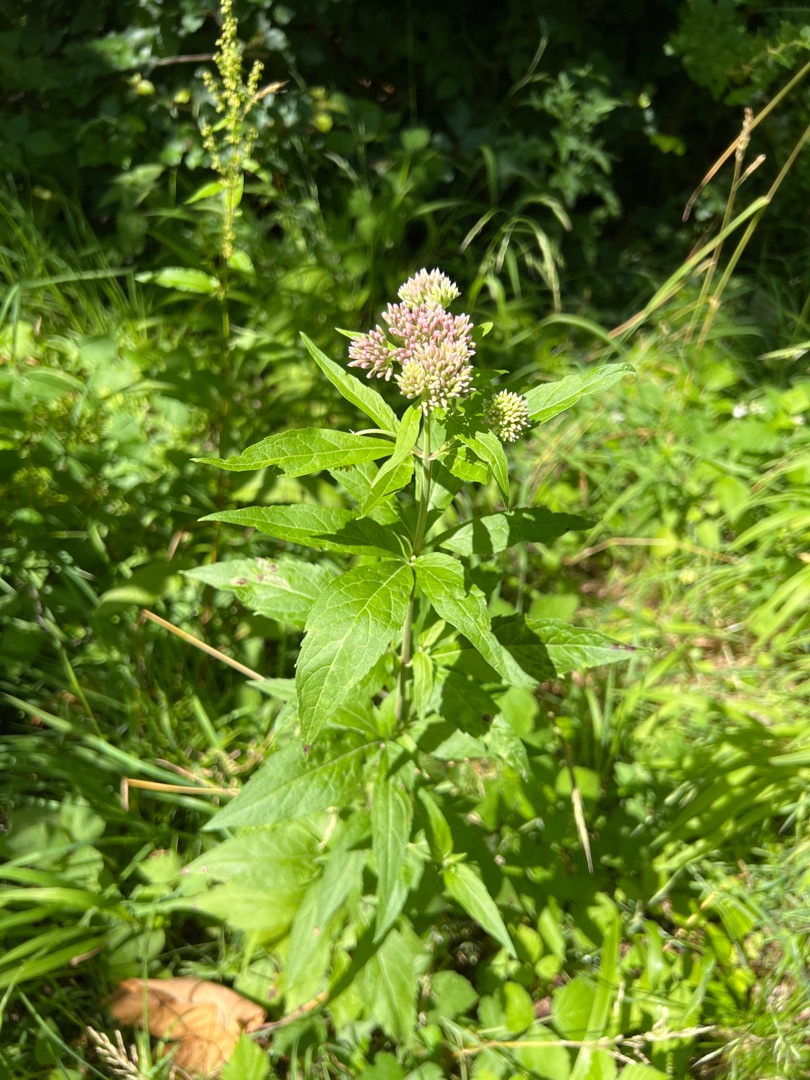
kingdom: Plantae
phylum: Tracheophyta
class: Magnoliopsida
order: Asterales
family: Asteraceae
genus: Eupatorium
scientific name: Eupatorium cannabinum
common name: Hjortetrøst
